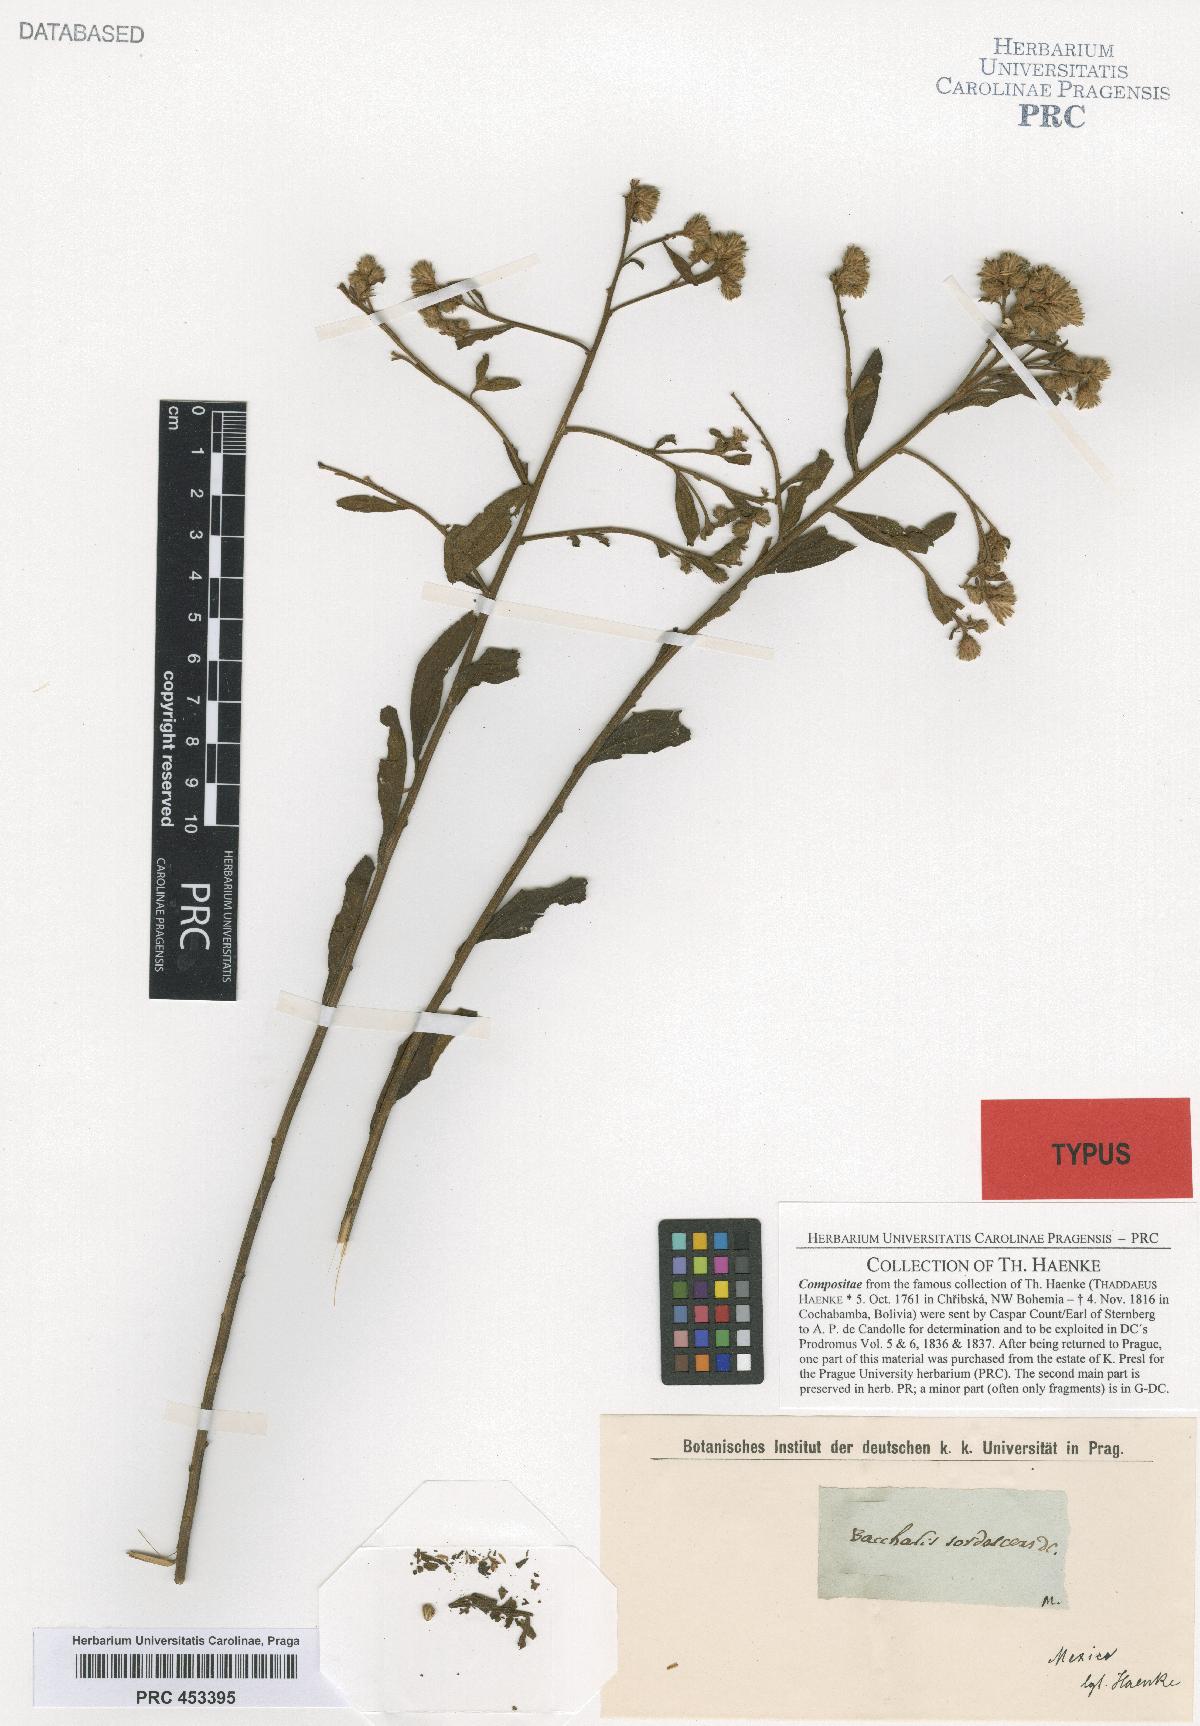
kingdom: Plantae
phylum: Tracheophyta
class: Magnoliopsida
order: Asterales
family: Asteraceae
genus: Baccharis
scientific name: Baccharis sordescens
